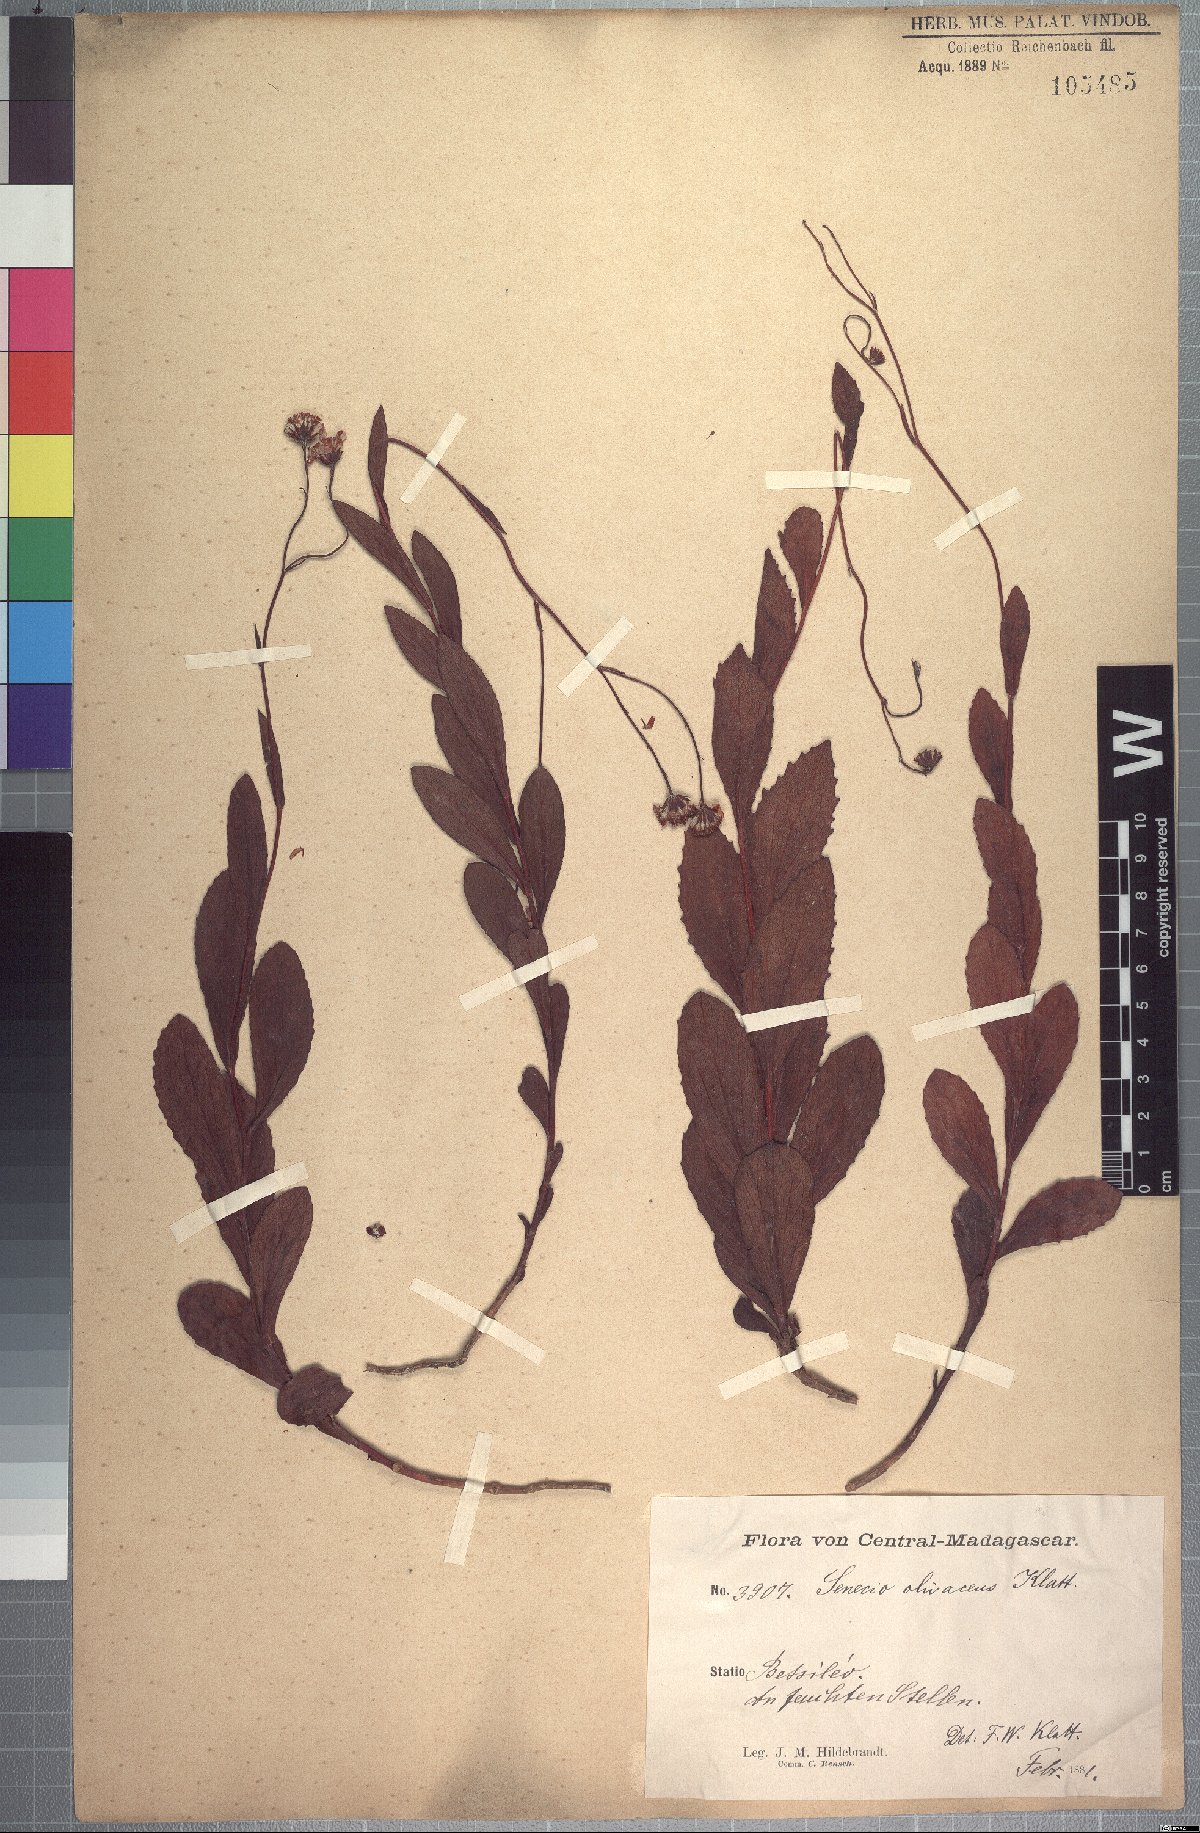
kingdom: Plantae
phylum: Tracheophyta
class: Magnoliopsida
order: Asterales
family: Asteraceae
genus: Hubertia
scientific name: Hubertia olivacea
